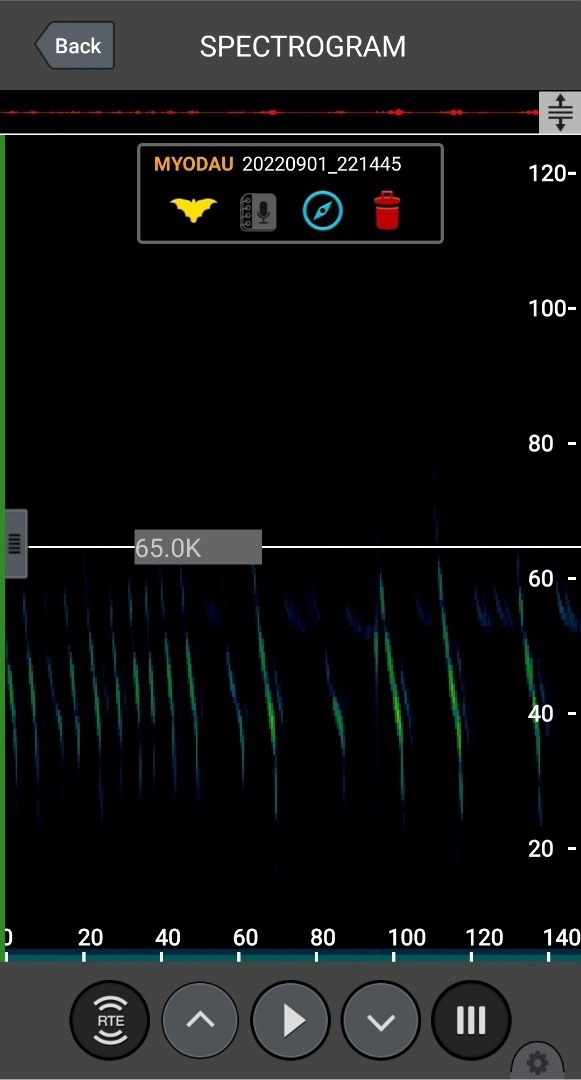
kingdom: Animalia
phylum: Chordata
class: Mammalia
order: Chiroptera
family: Vespertilionidae
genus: Myotis
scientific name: Myotis daubentonii
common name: Vandflagermus
